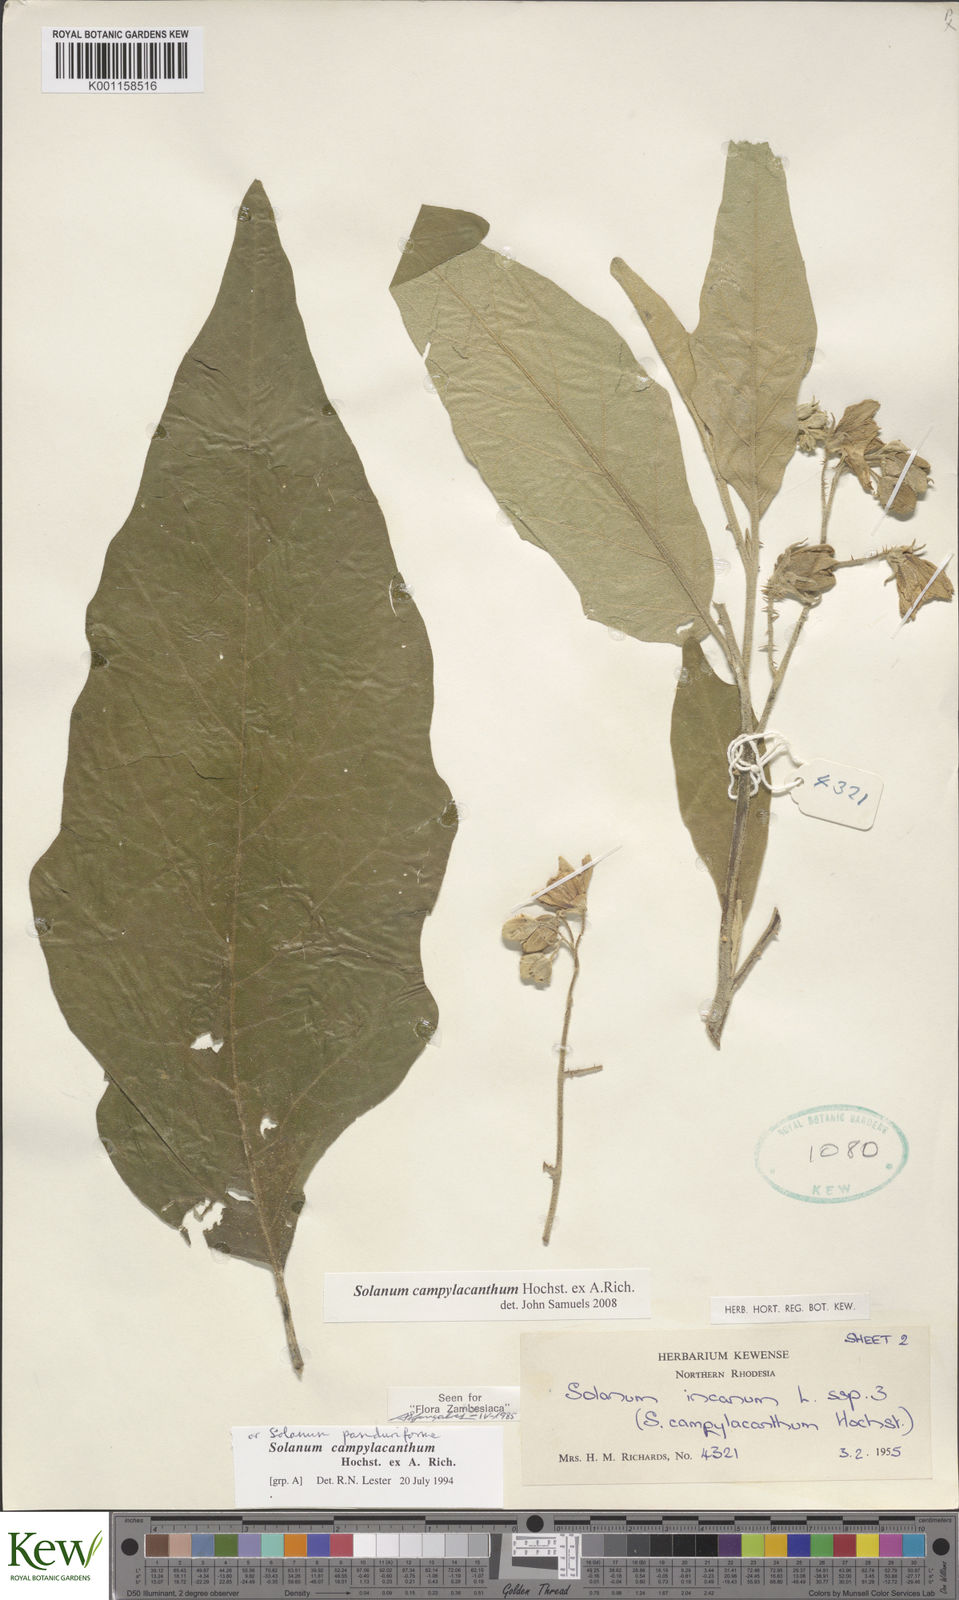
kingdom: Plantae
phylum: Tracheophyta
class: Magnoliopsida
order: Solanales
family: Solanaceae
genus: Solanum
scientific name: Solanum campylacanthum
